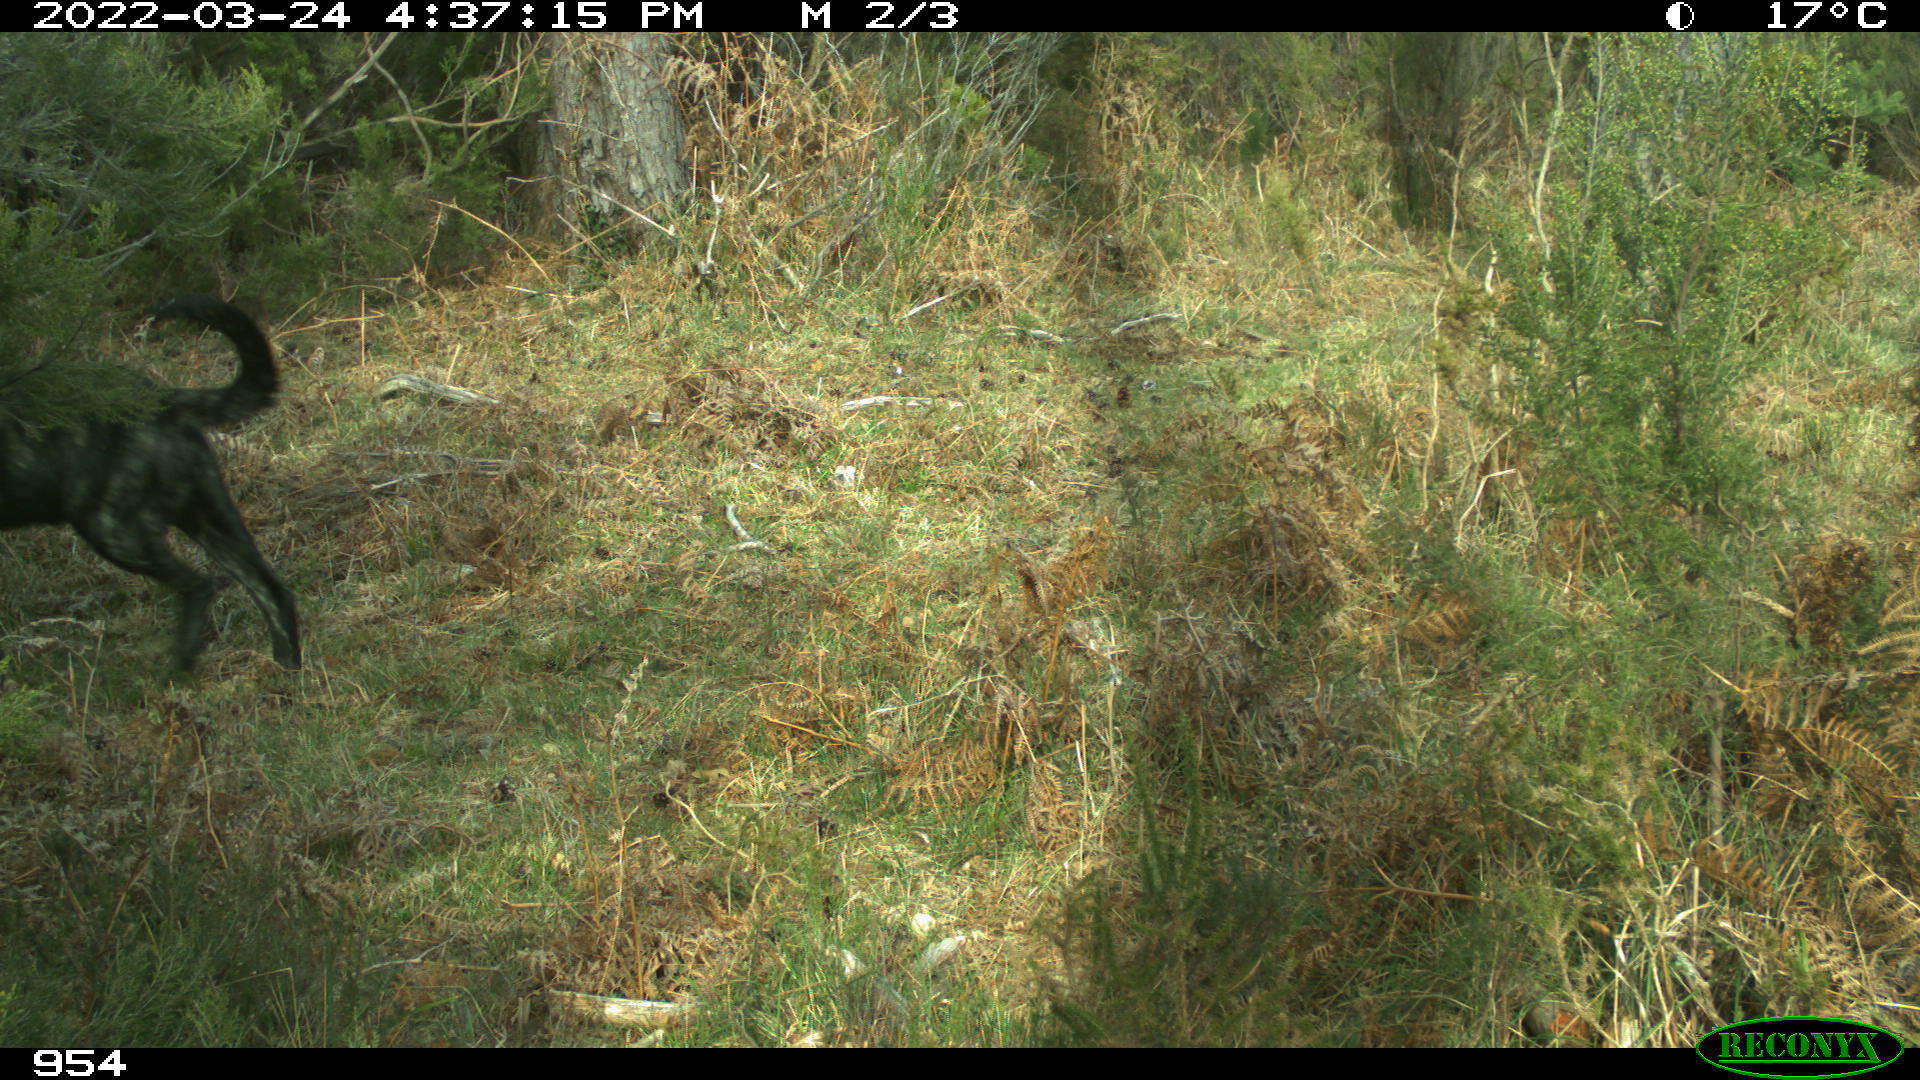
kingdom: Animalia
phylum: Chordata
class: Mammalia
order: Carnivora
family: Canidae
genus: Canis
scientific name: Canis lupus
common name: Gray wolf
